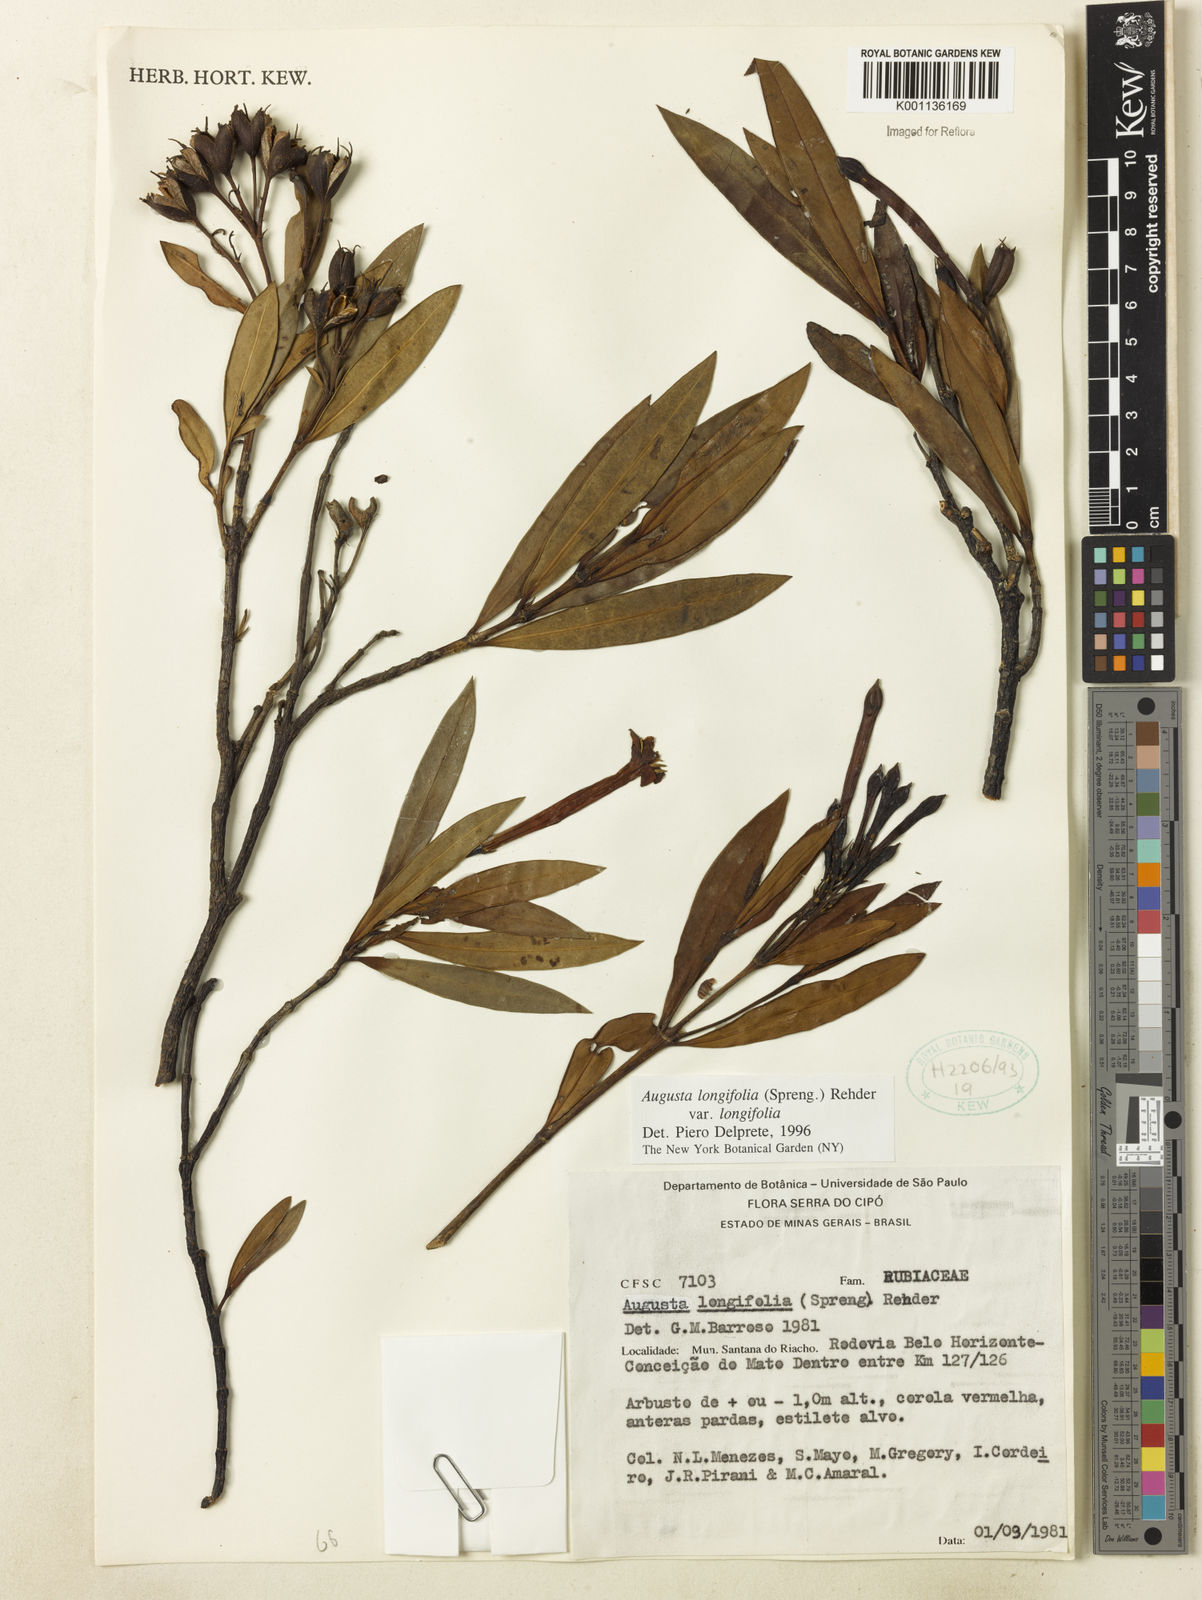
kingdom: Plantae
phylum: Tracheophyta
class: Magnoliopsida
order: Gentianales
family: Rubiaceae
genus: Augusta
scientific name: Augusta longifolia
